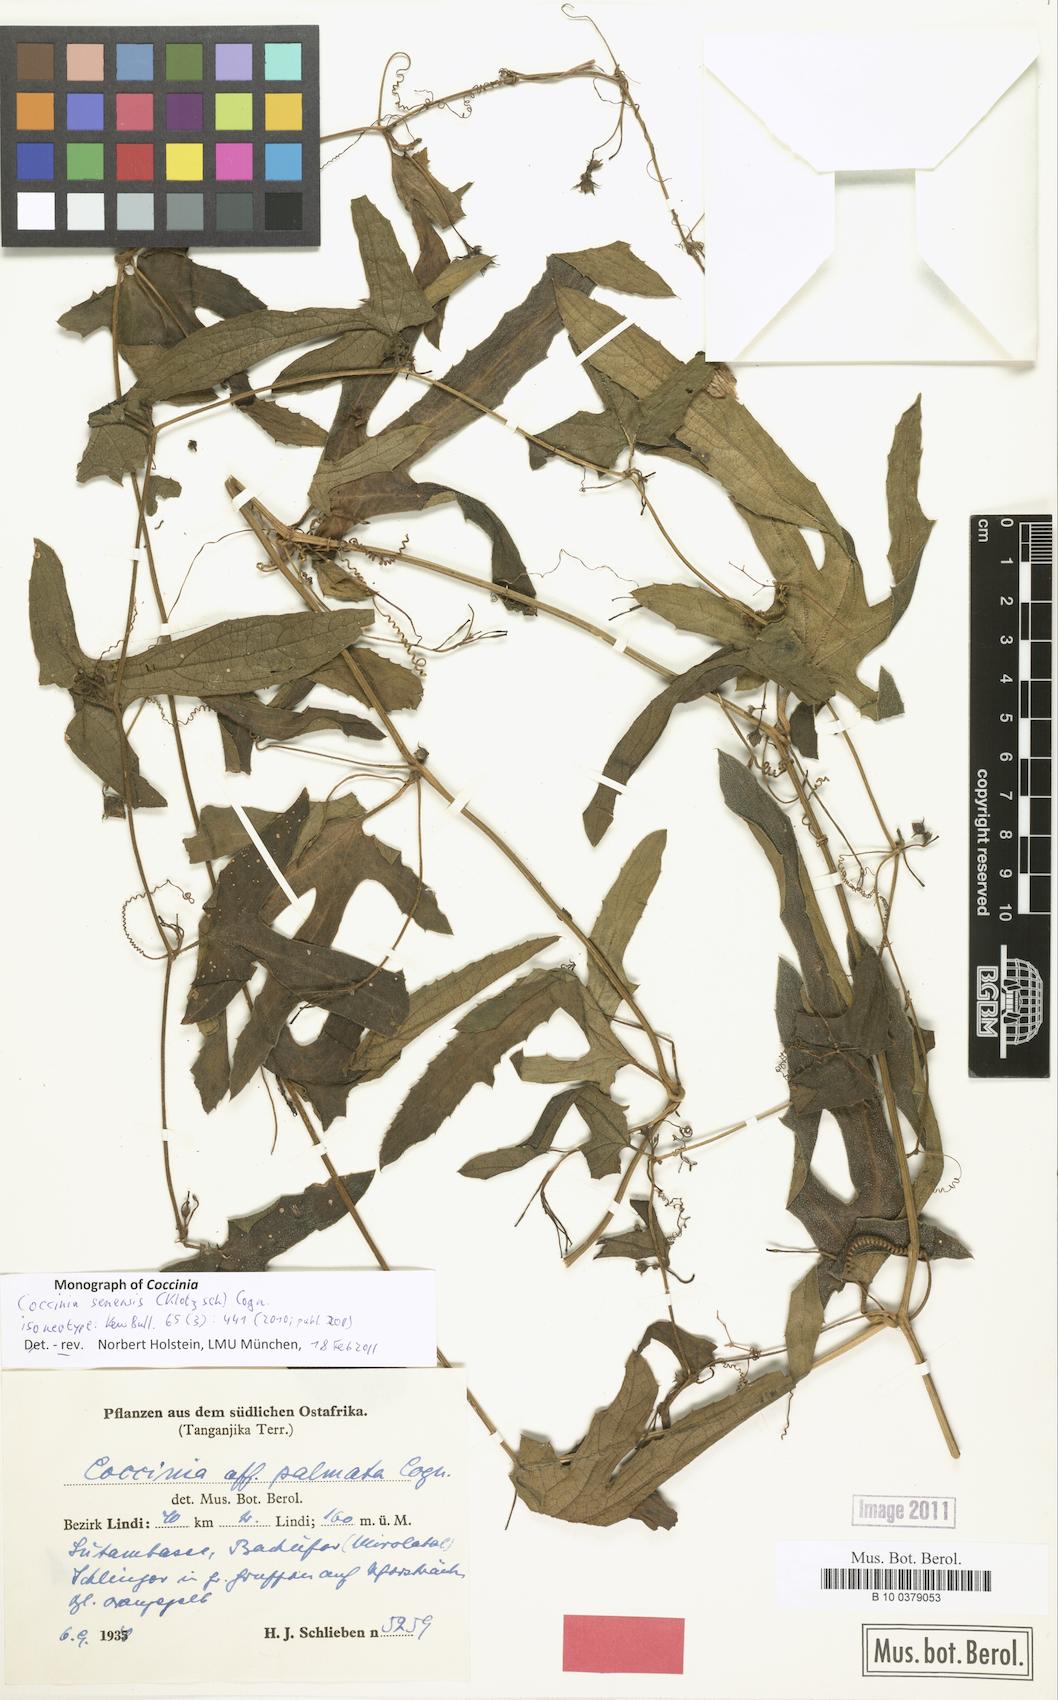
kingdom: Plantae
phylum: Tracheophyta
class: Magnoliopsida
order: Cucurbitales
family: Cucurbitaceae
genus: Coccinia
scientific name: Coccinia senensis
